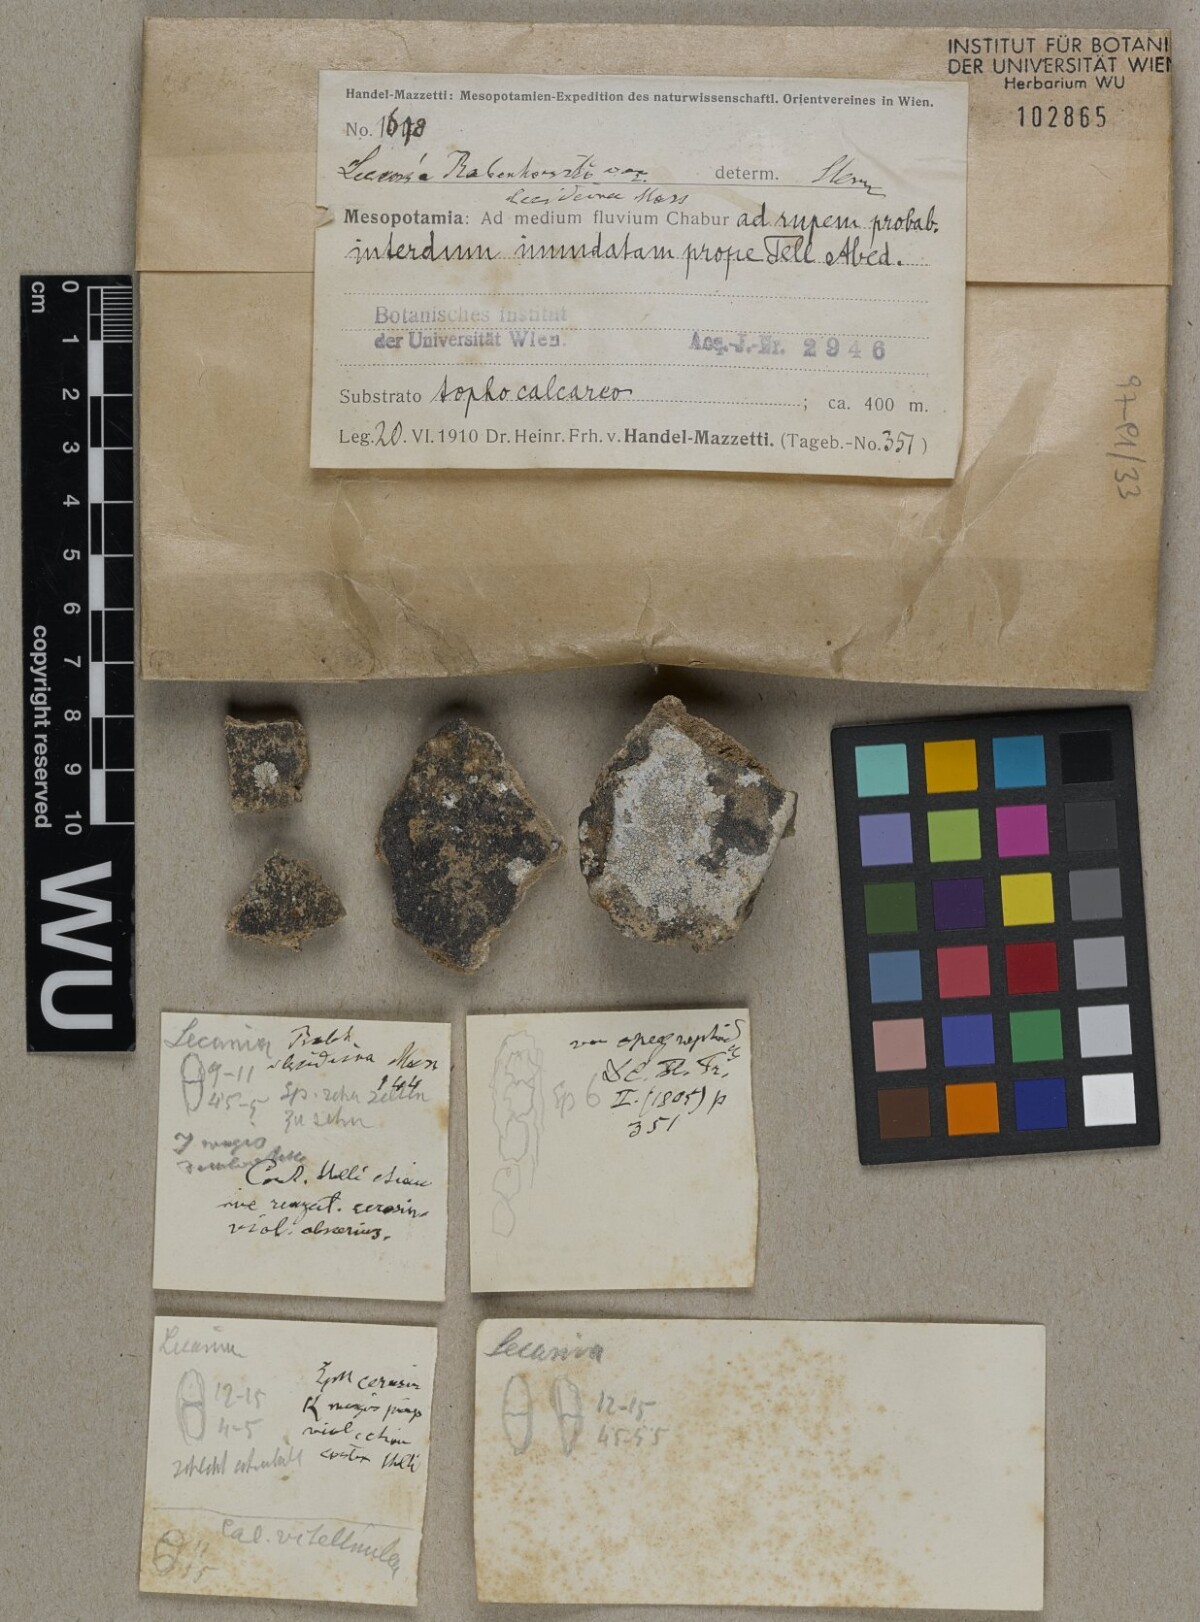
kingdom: Fungi
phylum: Ascomycota
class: Lecanoromycetes
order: Lecanorales
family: Ramalinaceae
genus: Lecania
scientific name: Lecania rabenhorstii
